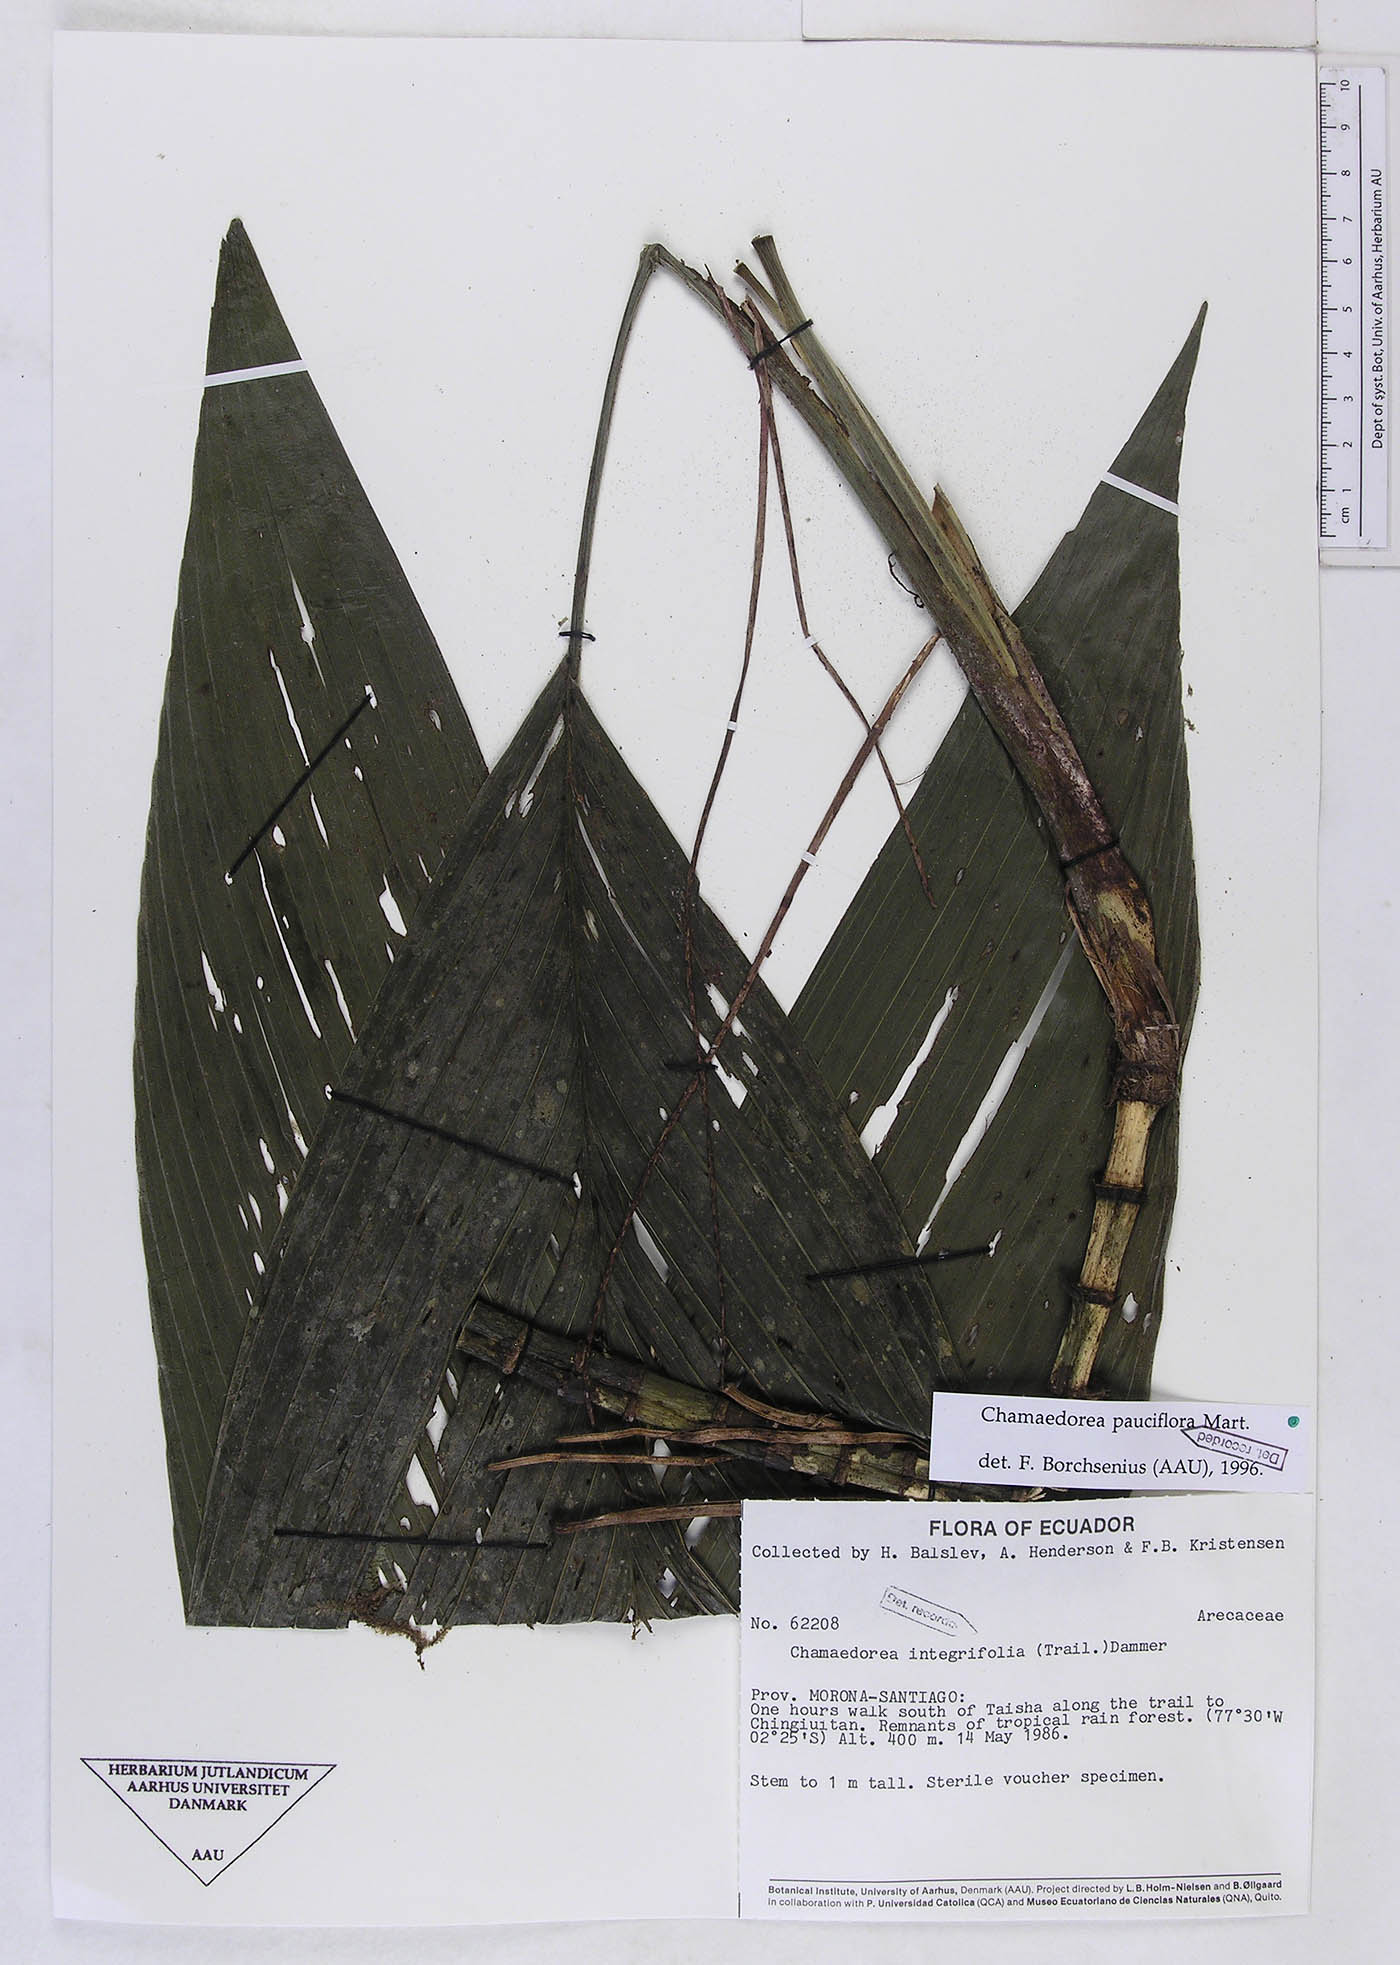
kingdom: Plantae
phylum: Tracheophyta
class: Liliopsida
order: Arecales
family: Arecaceae
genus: Chamaedorea
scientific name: Chamaedorea pauciflora
